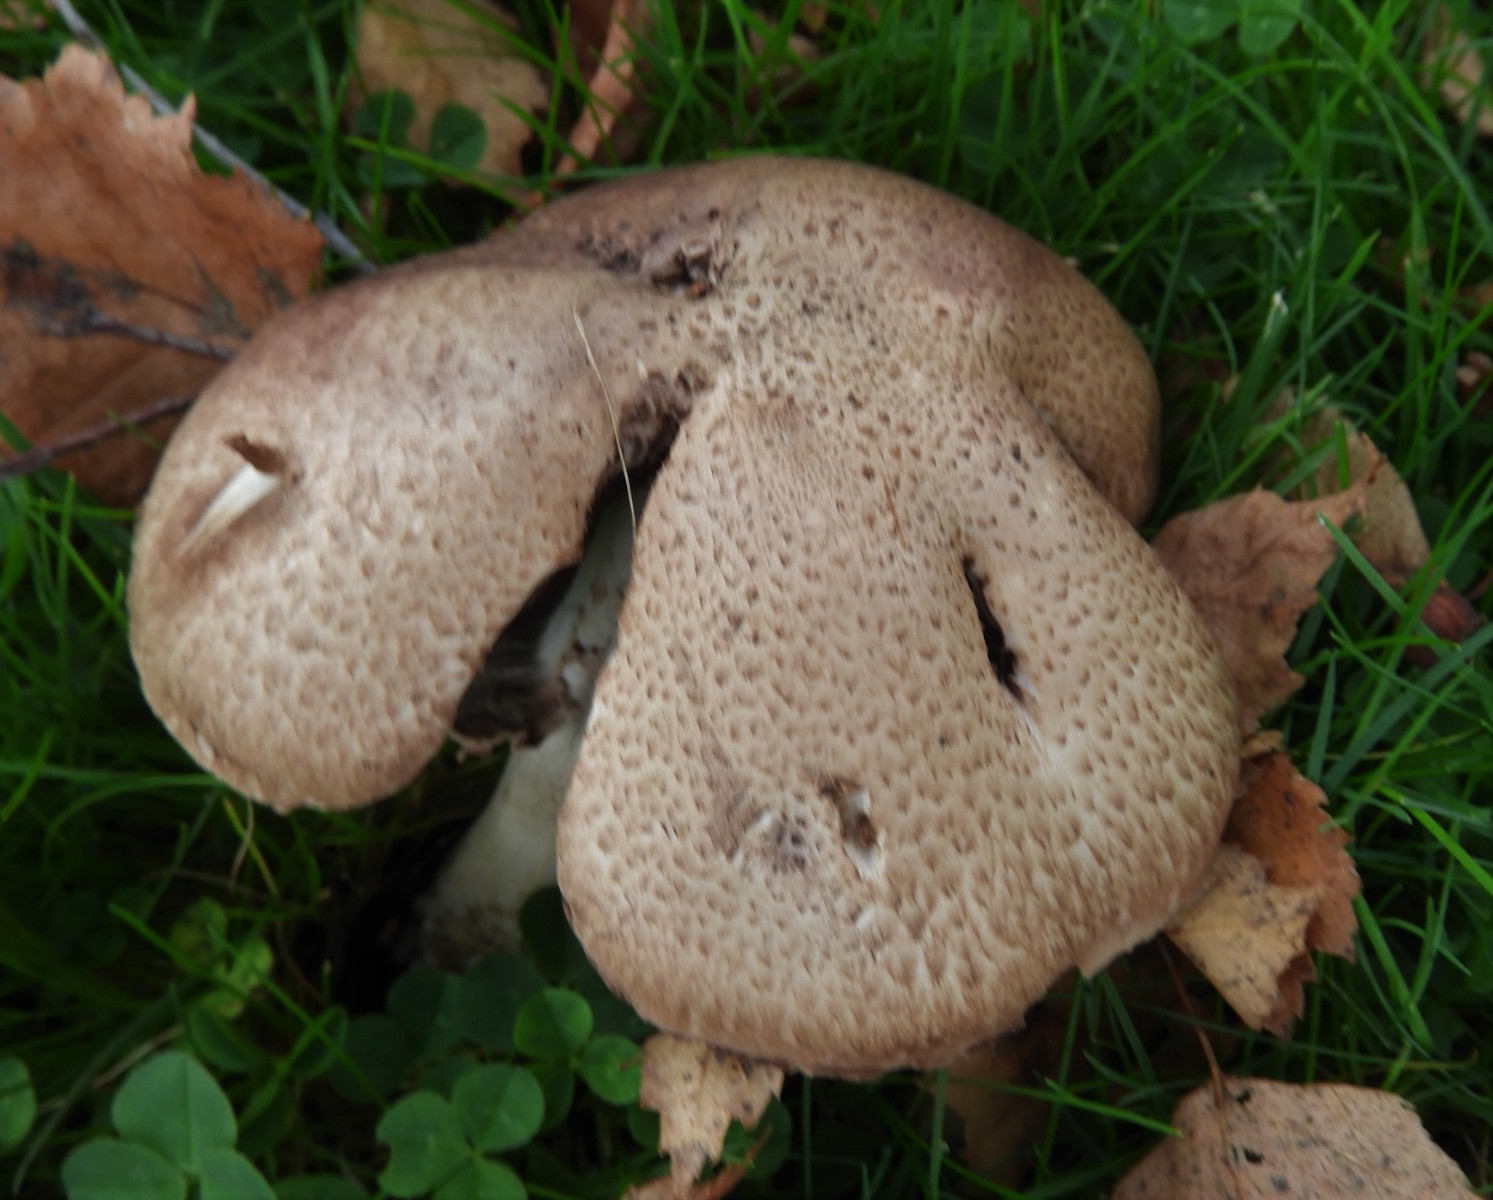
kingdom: Fungi
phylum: Basidiomycota
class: Agaricomycetes
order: Agaricales
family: Agaricaceae
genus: Agaricus
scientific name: Agaricus augustus
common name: prægtig champignon
